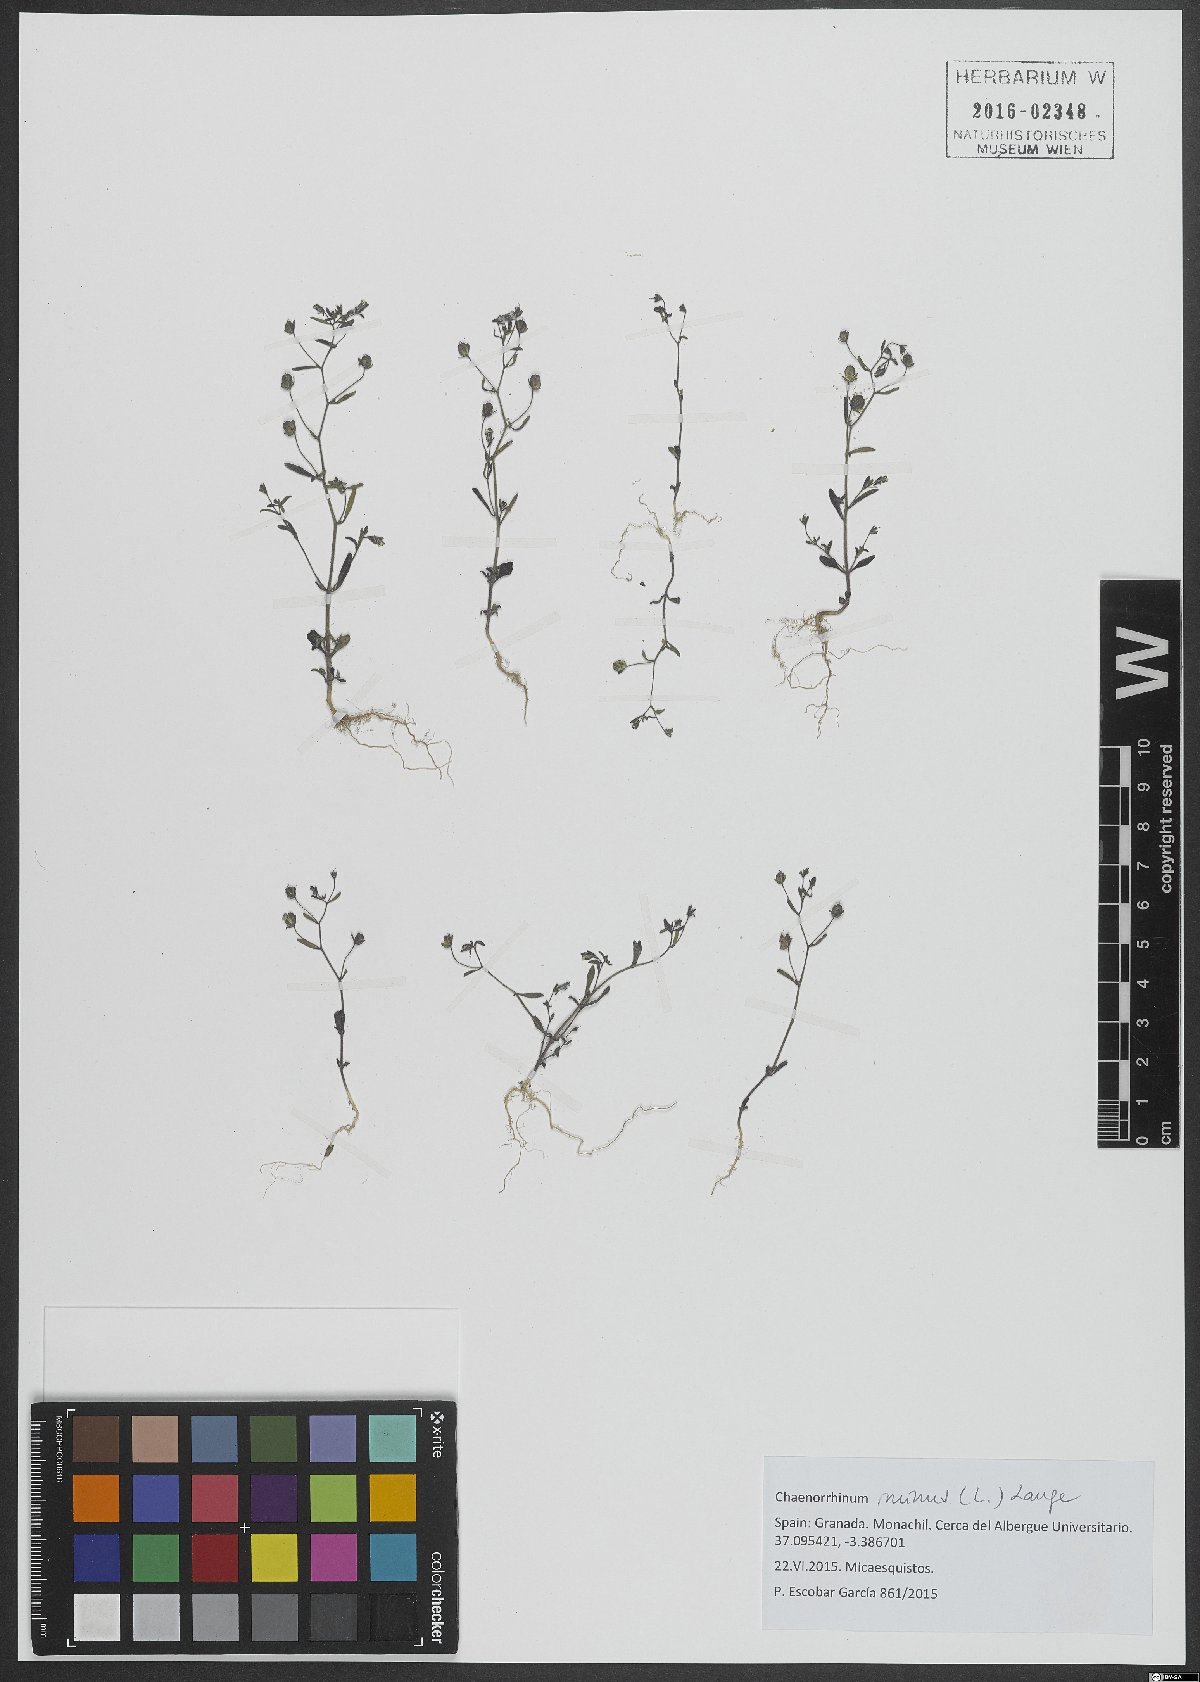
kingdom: Plantae
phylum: Tracheophyta
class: Magnoliopsida
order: Lamiales
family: Plantaginaceae
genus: Chaenorhinum
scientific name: Chaenorhinum minus
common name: Dwarf snapdragon
